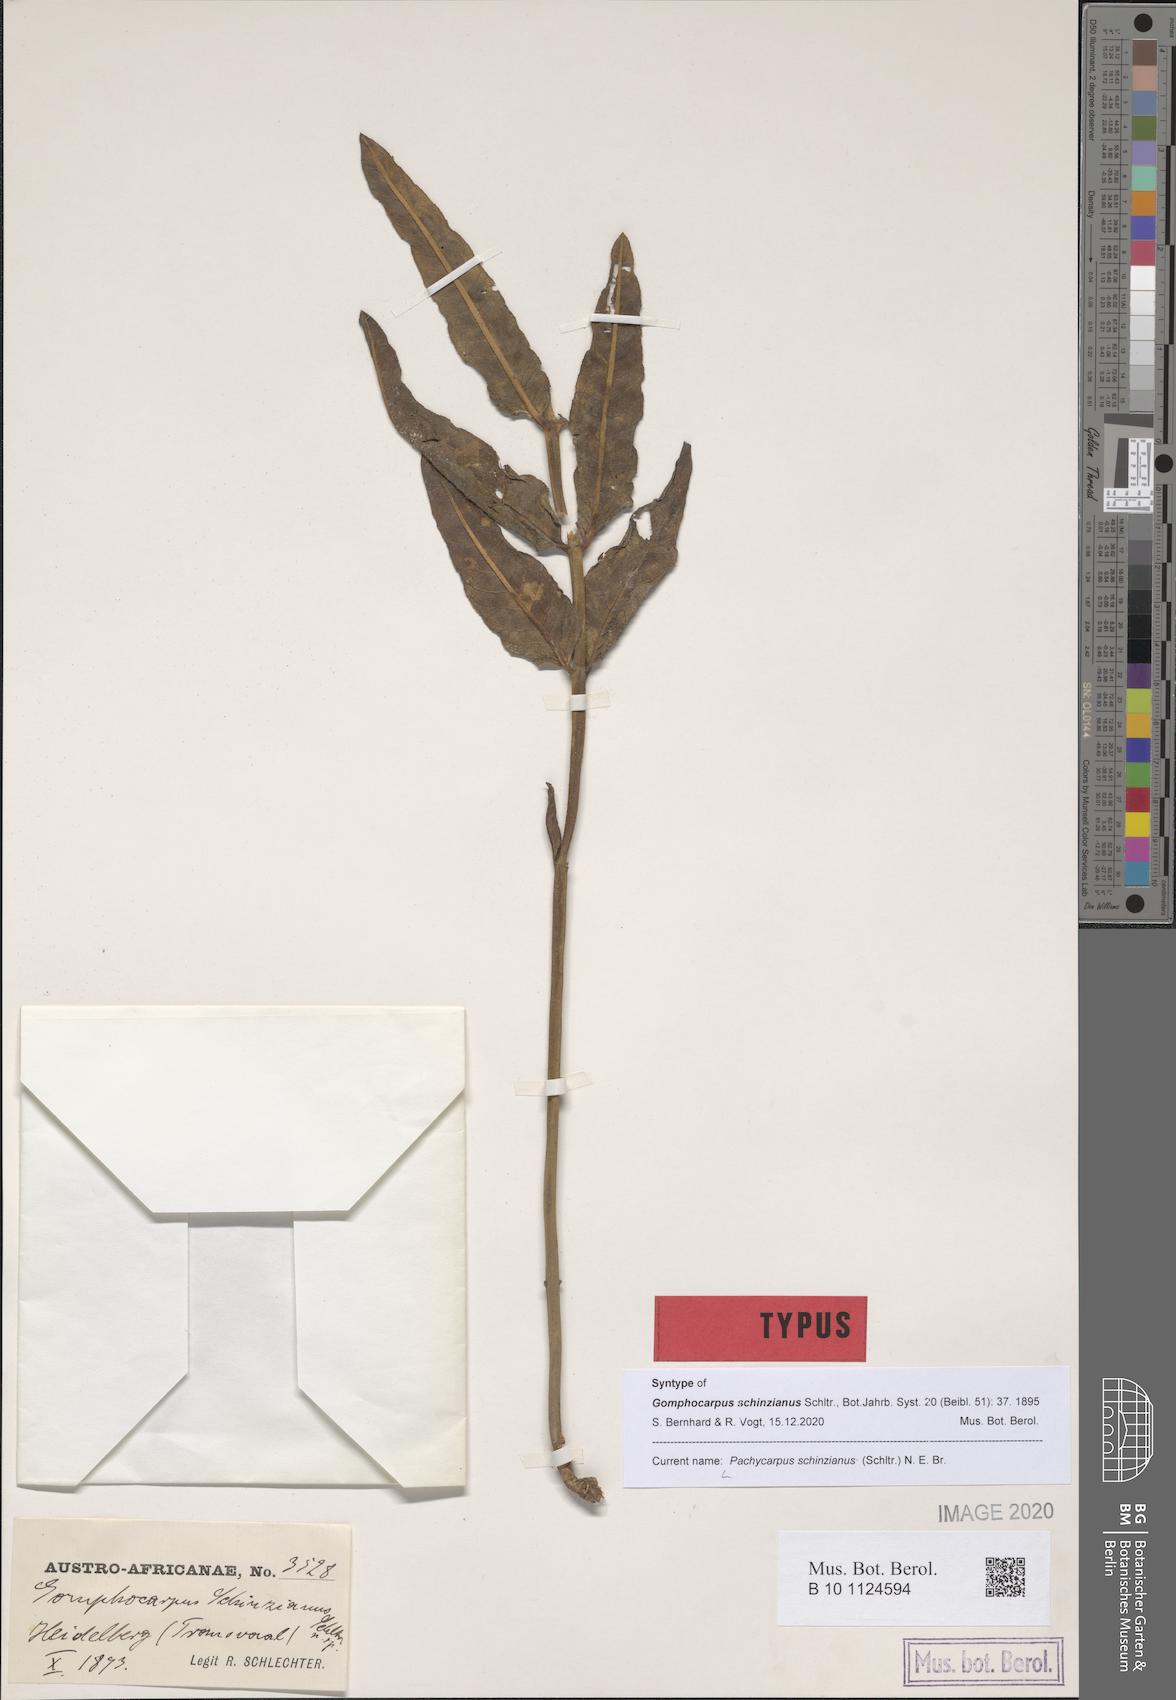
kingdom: Plantae
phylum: Tracheophyta
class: Magnoliopsida
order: Gentianales
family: Apocynaceae
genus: Pachycarpus
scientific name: Pachycarpus schinzianus
